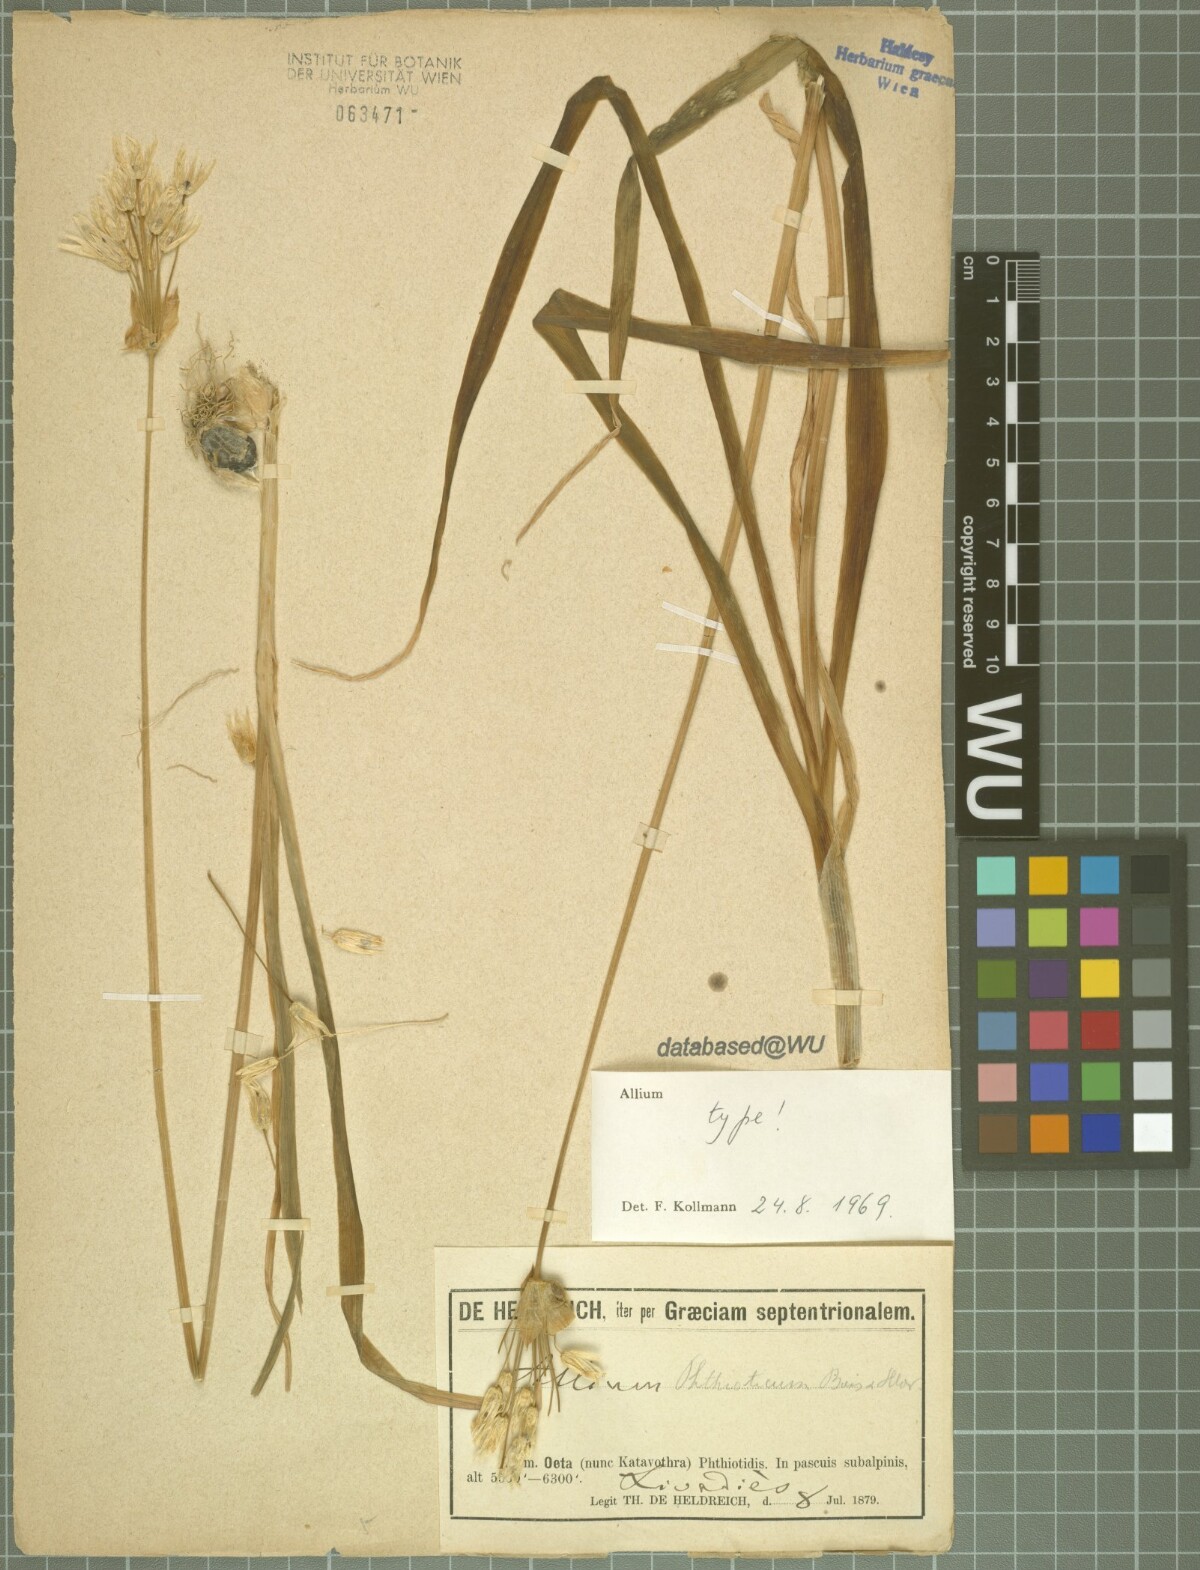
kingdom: Plantae
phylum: Tracheophyta
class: Liliopsida
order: Asparagales
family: Amaryllidaceae
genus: Allium
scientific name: Allium phthioticum
